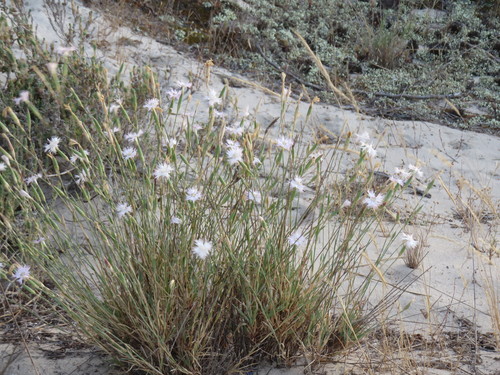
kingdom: Plantae
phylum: Tracheophyta
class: Magnoliopsida
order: Caryophyllales
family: Caryophyllaceae
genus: Dianthus
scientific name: Dianthus broteri
